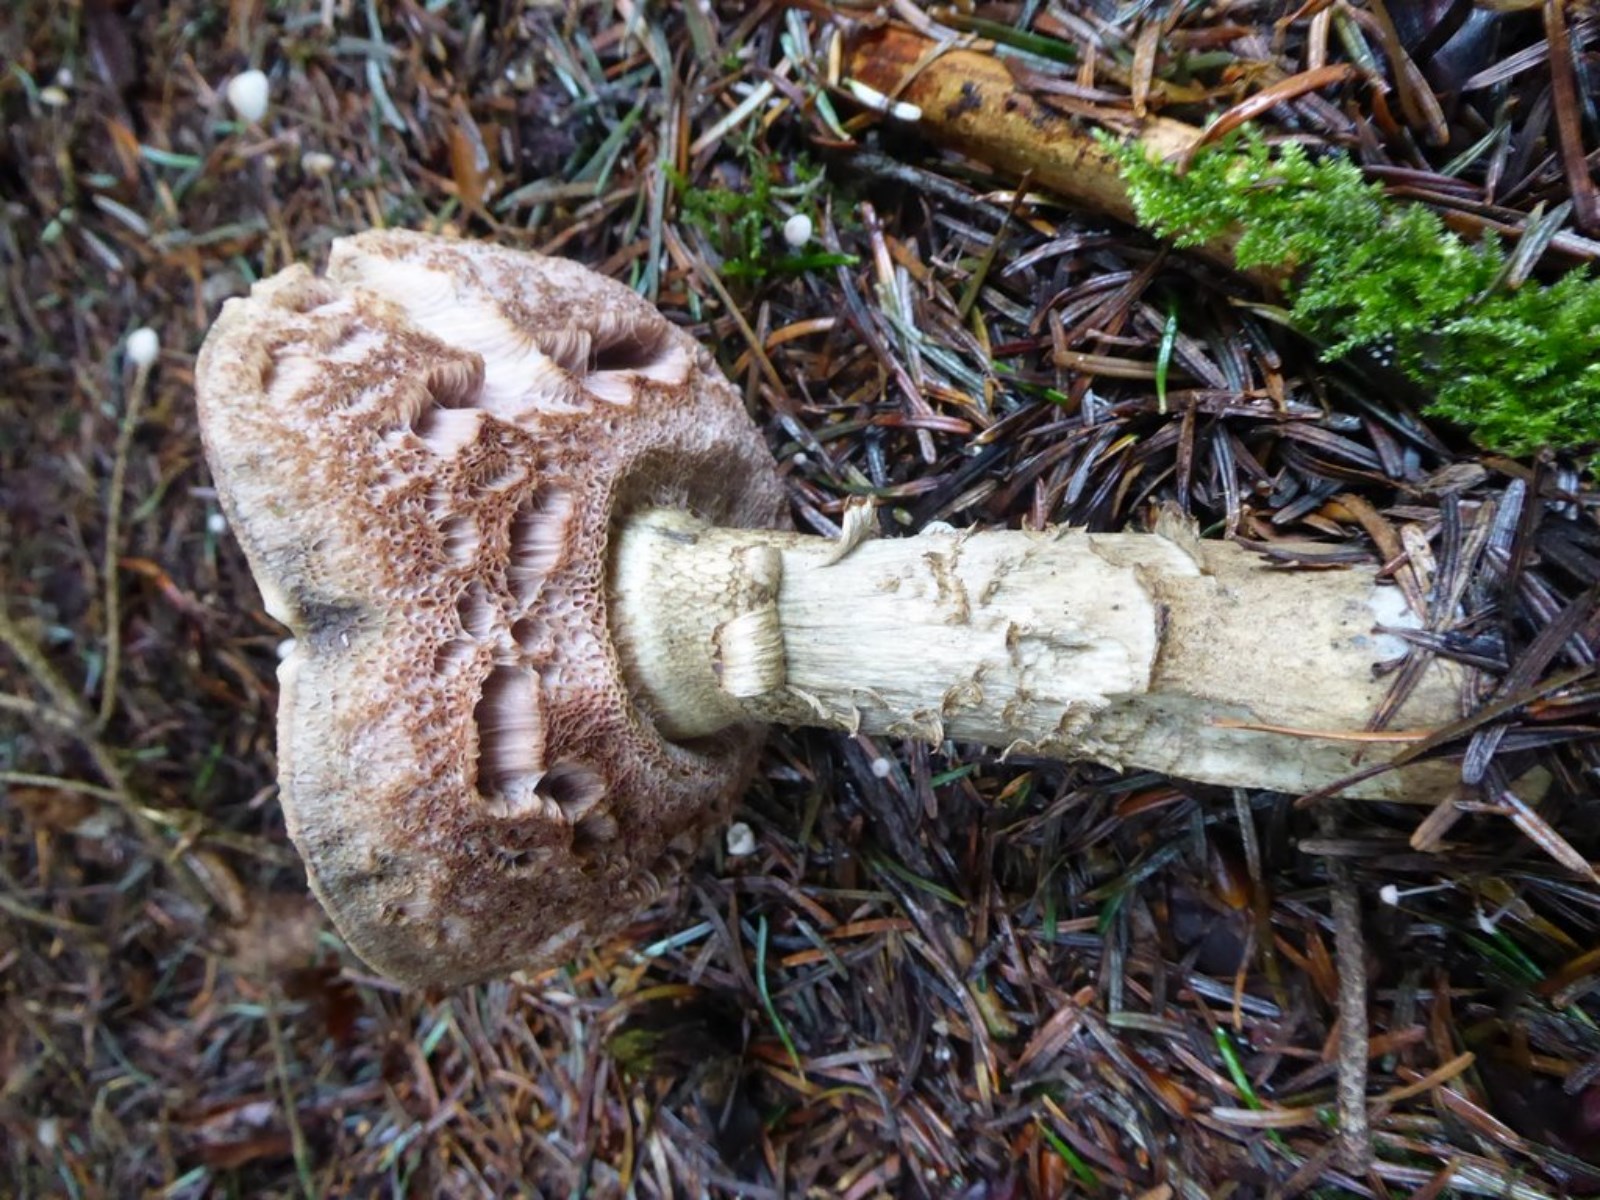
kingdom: Fungi
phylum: Basidiomycota
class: Agaricomycetes
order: Boletales
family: Boletaceae
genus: Tylopilus
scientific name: Tylopilus felleus
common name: galderørhat
